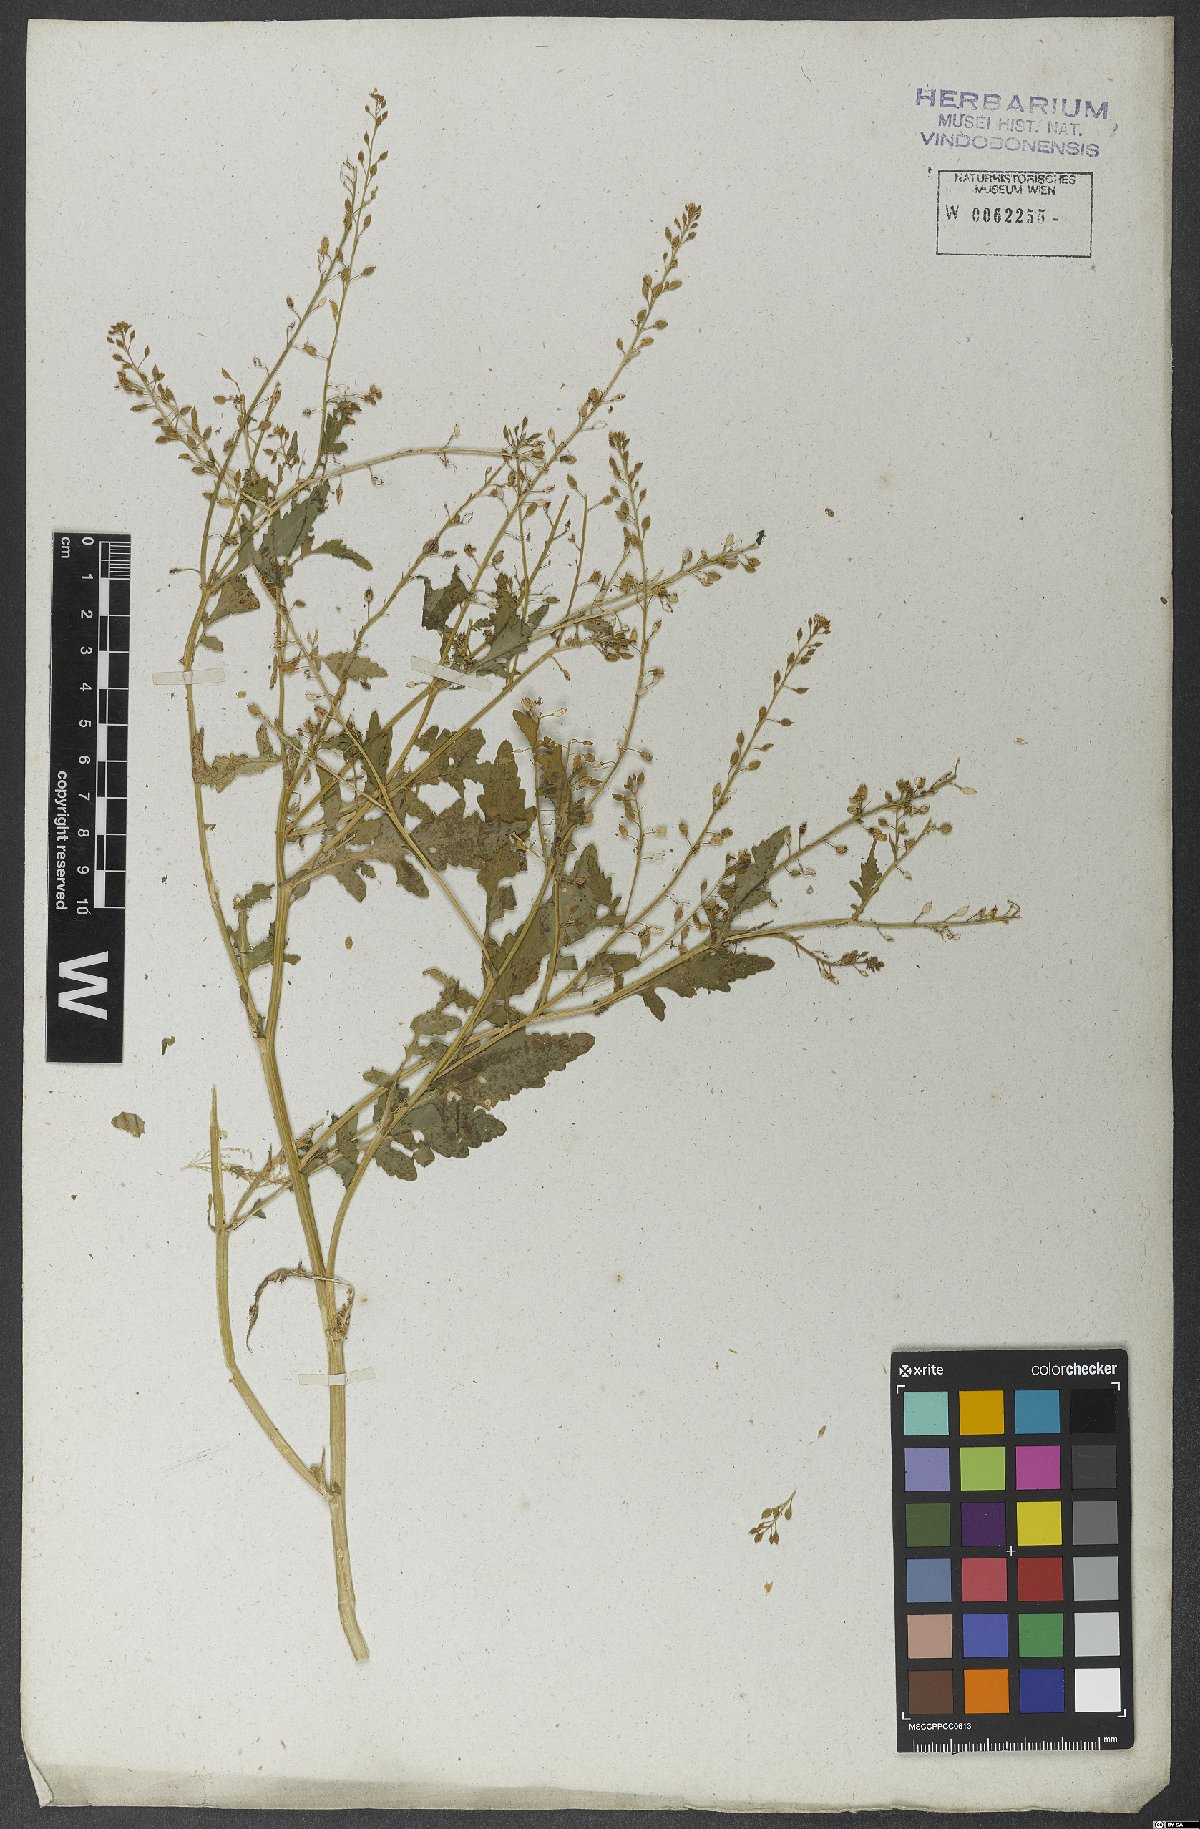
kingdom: Plantae
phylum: Tracheophyta
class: Magnoliopsida
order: Brassicales
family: Brassicaceae
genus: Rorippa
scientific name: Rorippa palustris
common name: Marsh yellow-cress
